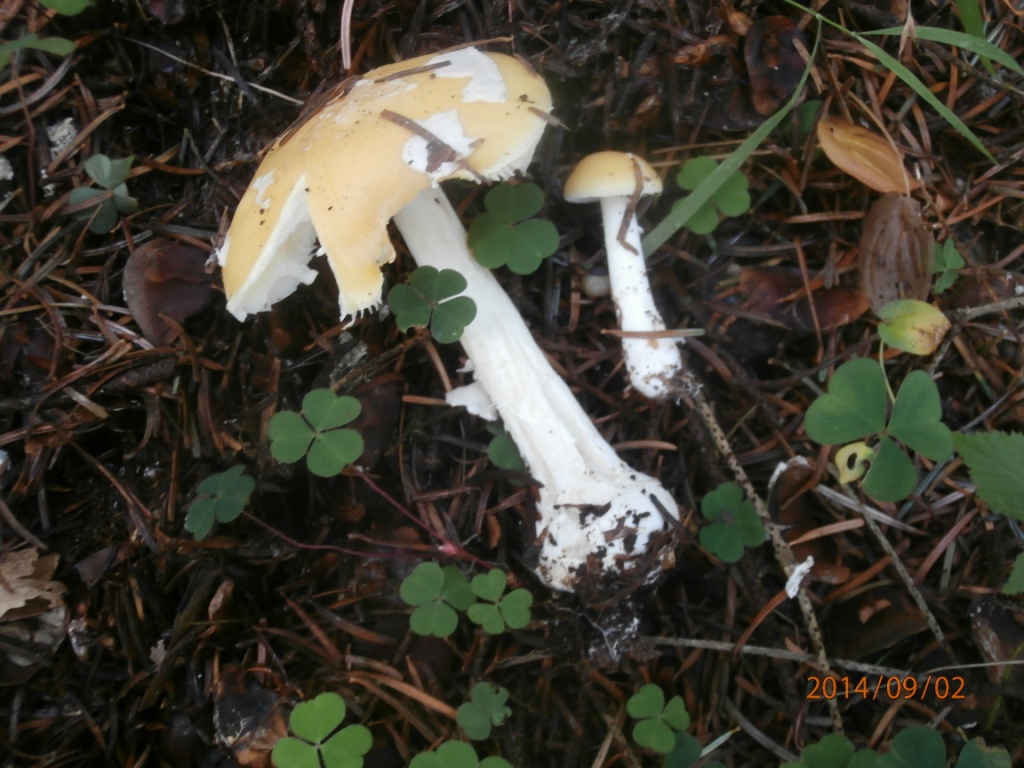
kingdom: Fungi
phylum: Basidiomycota
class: Agaricomycetes
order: Agaricales
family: Amanitaceae
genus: Amanita
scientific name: Amanita gemmata
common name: okkergul fluesvamp
